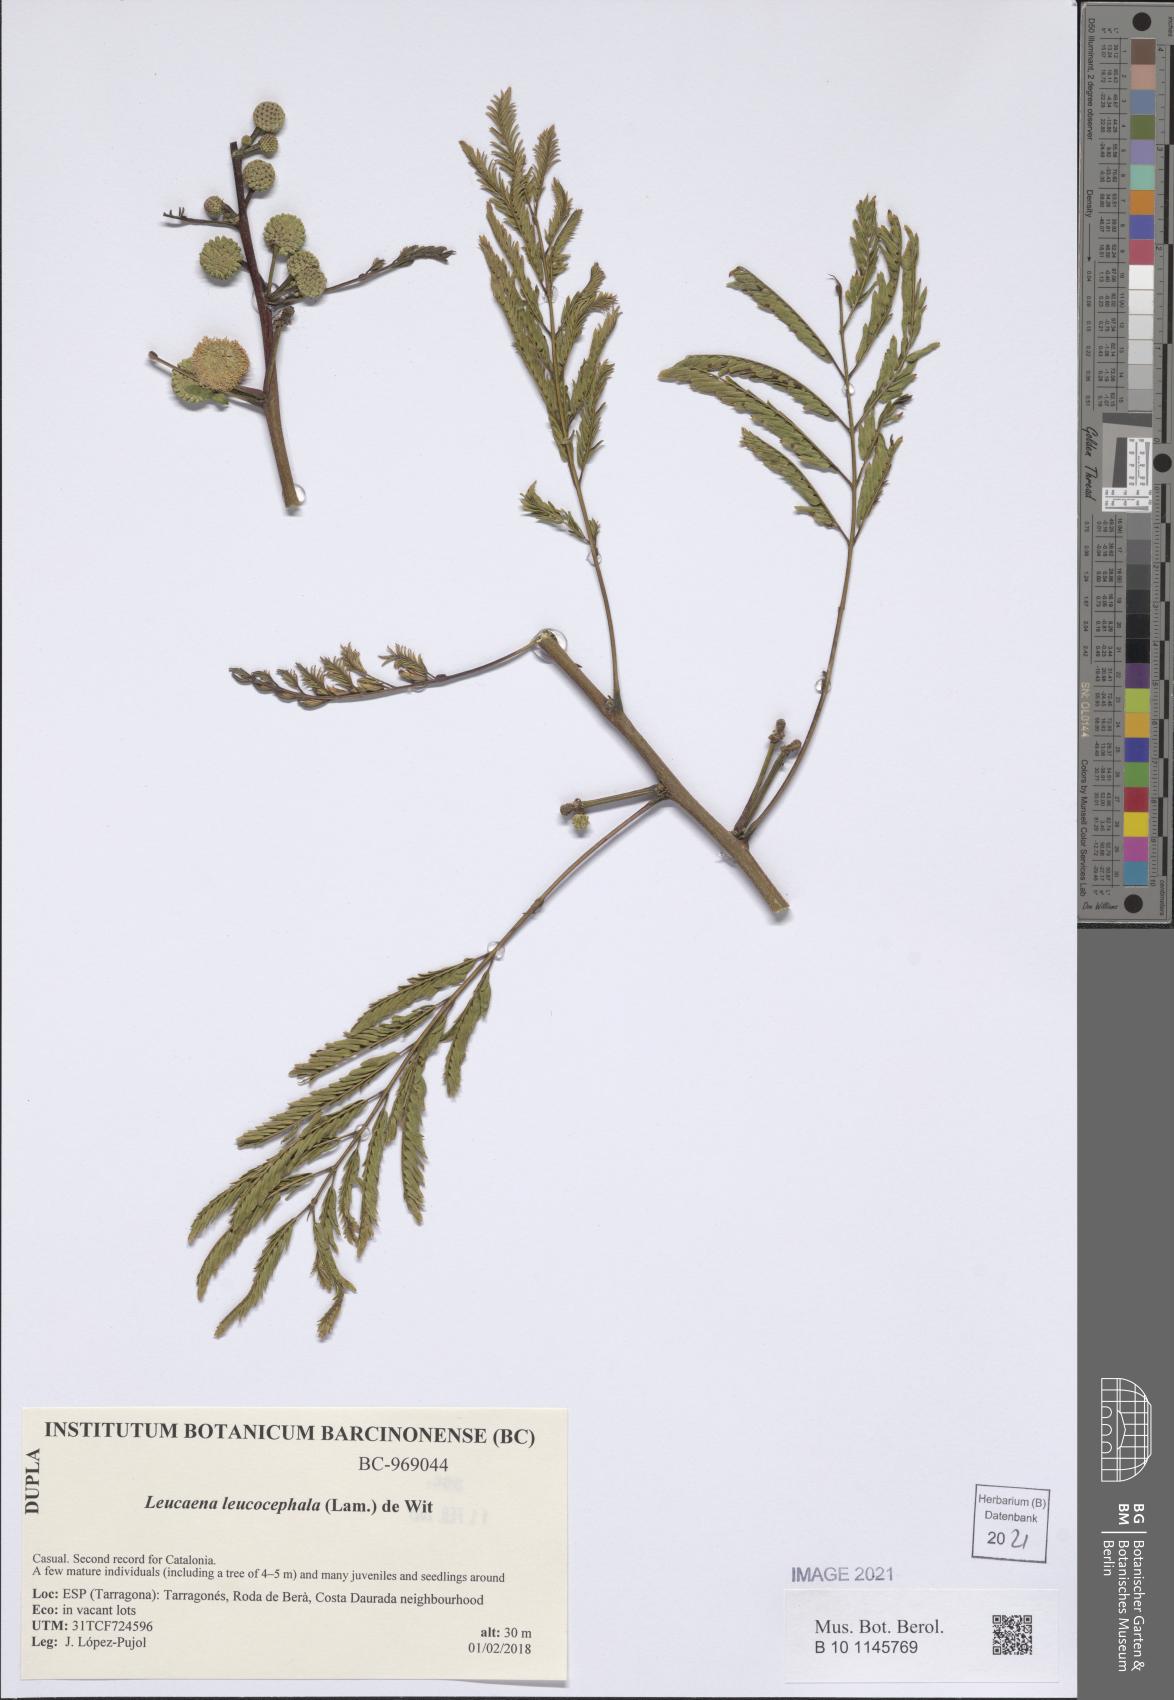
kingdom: Plantae
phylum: Tracheophyta
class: Magnoliopsida
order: Fabales
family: Fabaceae
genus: Leucaena
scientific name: Leucaena leucocephala
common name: White leadtree
